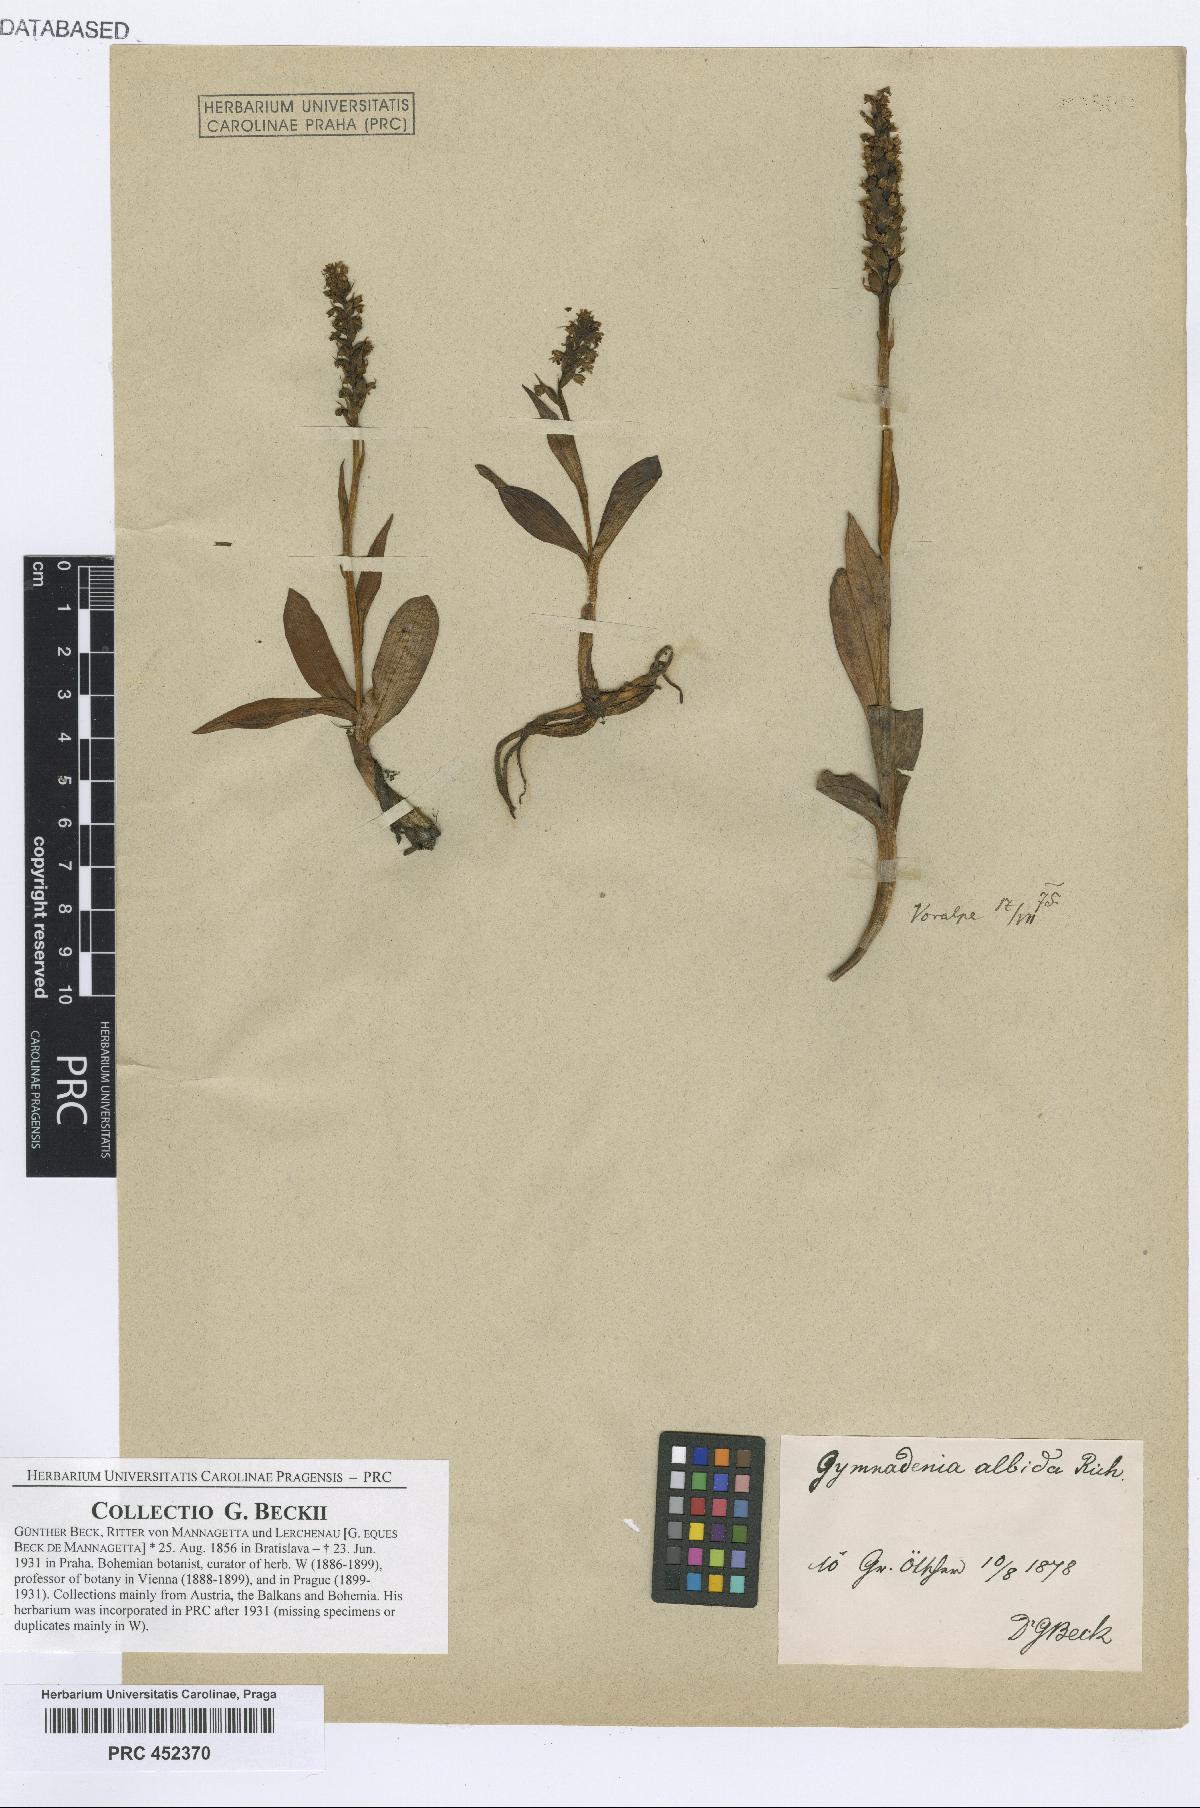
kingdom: Plantae
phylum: Tracheophyta
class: Liliopsida
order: Asparagales
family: Orchidaceae
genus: Pseudorchis
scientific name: Pseudorchis albida
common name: Small-white orchid
